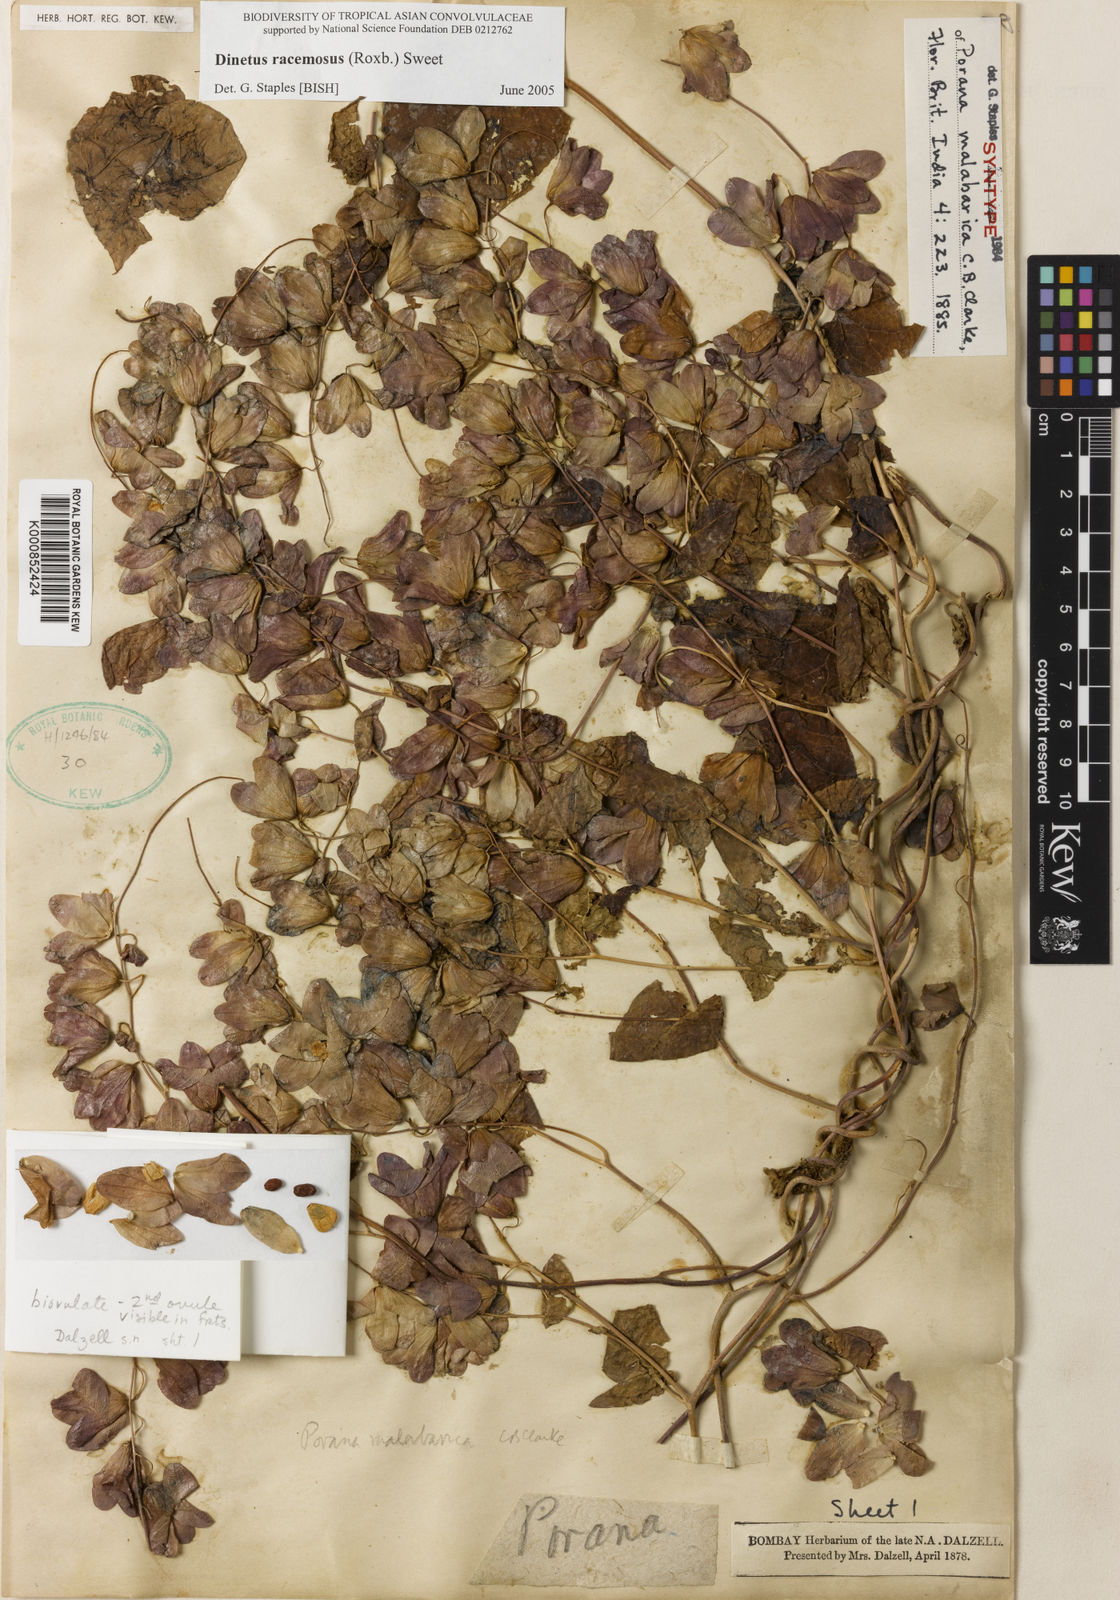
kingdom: Plantae
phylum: Tracheophyta
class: Magnoliopsida
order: Solanales
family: Convolvulaceae
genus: Dinetus
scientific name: Dinetus malabaricus
